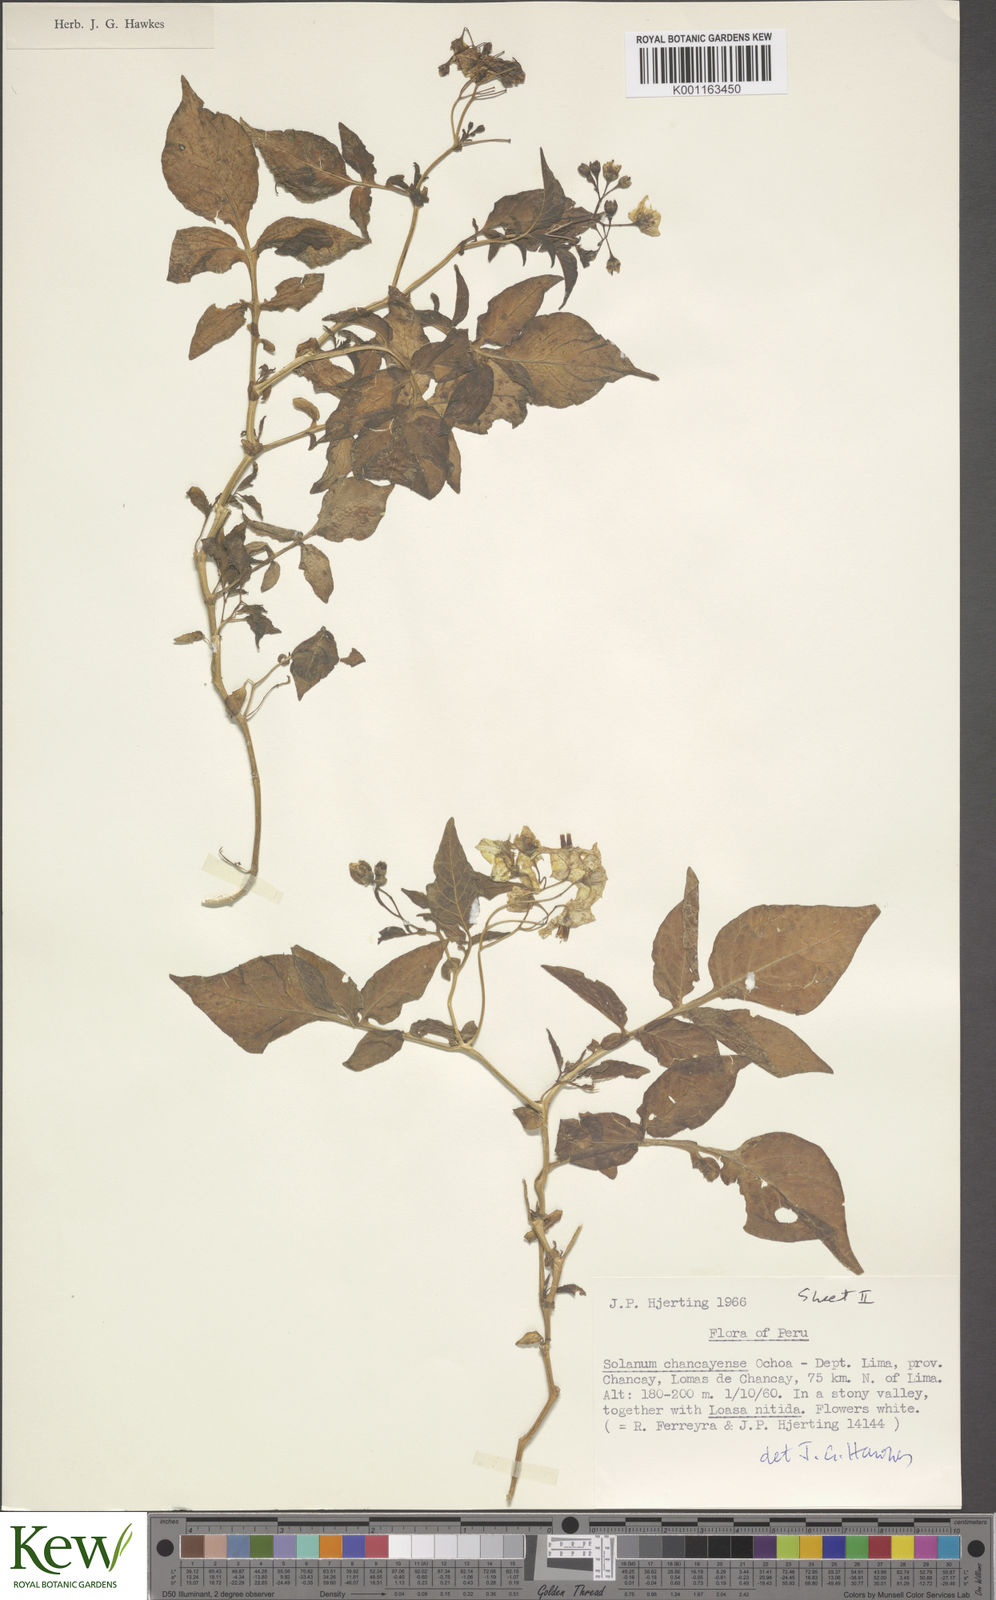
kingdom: Plantae
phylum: Tracheophyta
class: Magnoliopsida
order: Solanales
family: Solanaceae
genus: Solanum
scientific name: Solanum mochiquense
